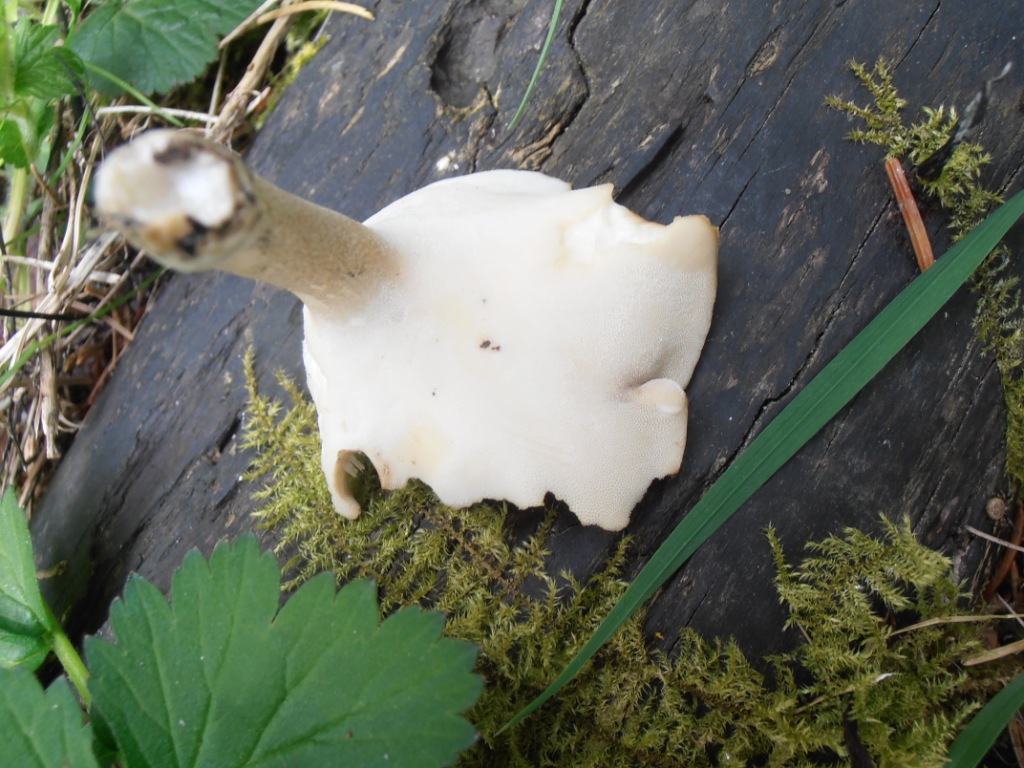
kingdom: Fungi
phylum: Basidiomycota
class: Agaricomycetes
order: Polyporales
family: Polyporaceae
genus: Lentinus
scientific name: Lentinus substrictus
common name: forårs-stilkporesvamp
